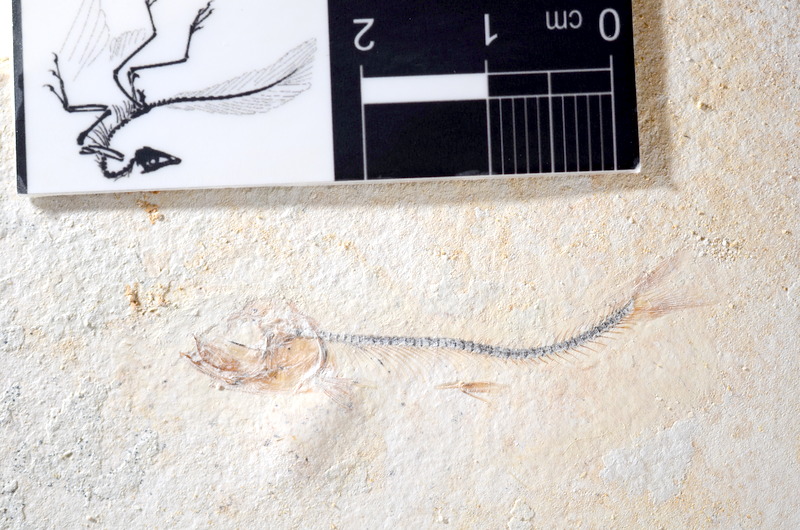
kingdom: Animalia
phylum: Chordata
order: Salmoniformes
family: Orthogonikleithridae
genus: Orthogonikleithrus
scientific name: Orthogonikleithrus hoelli
